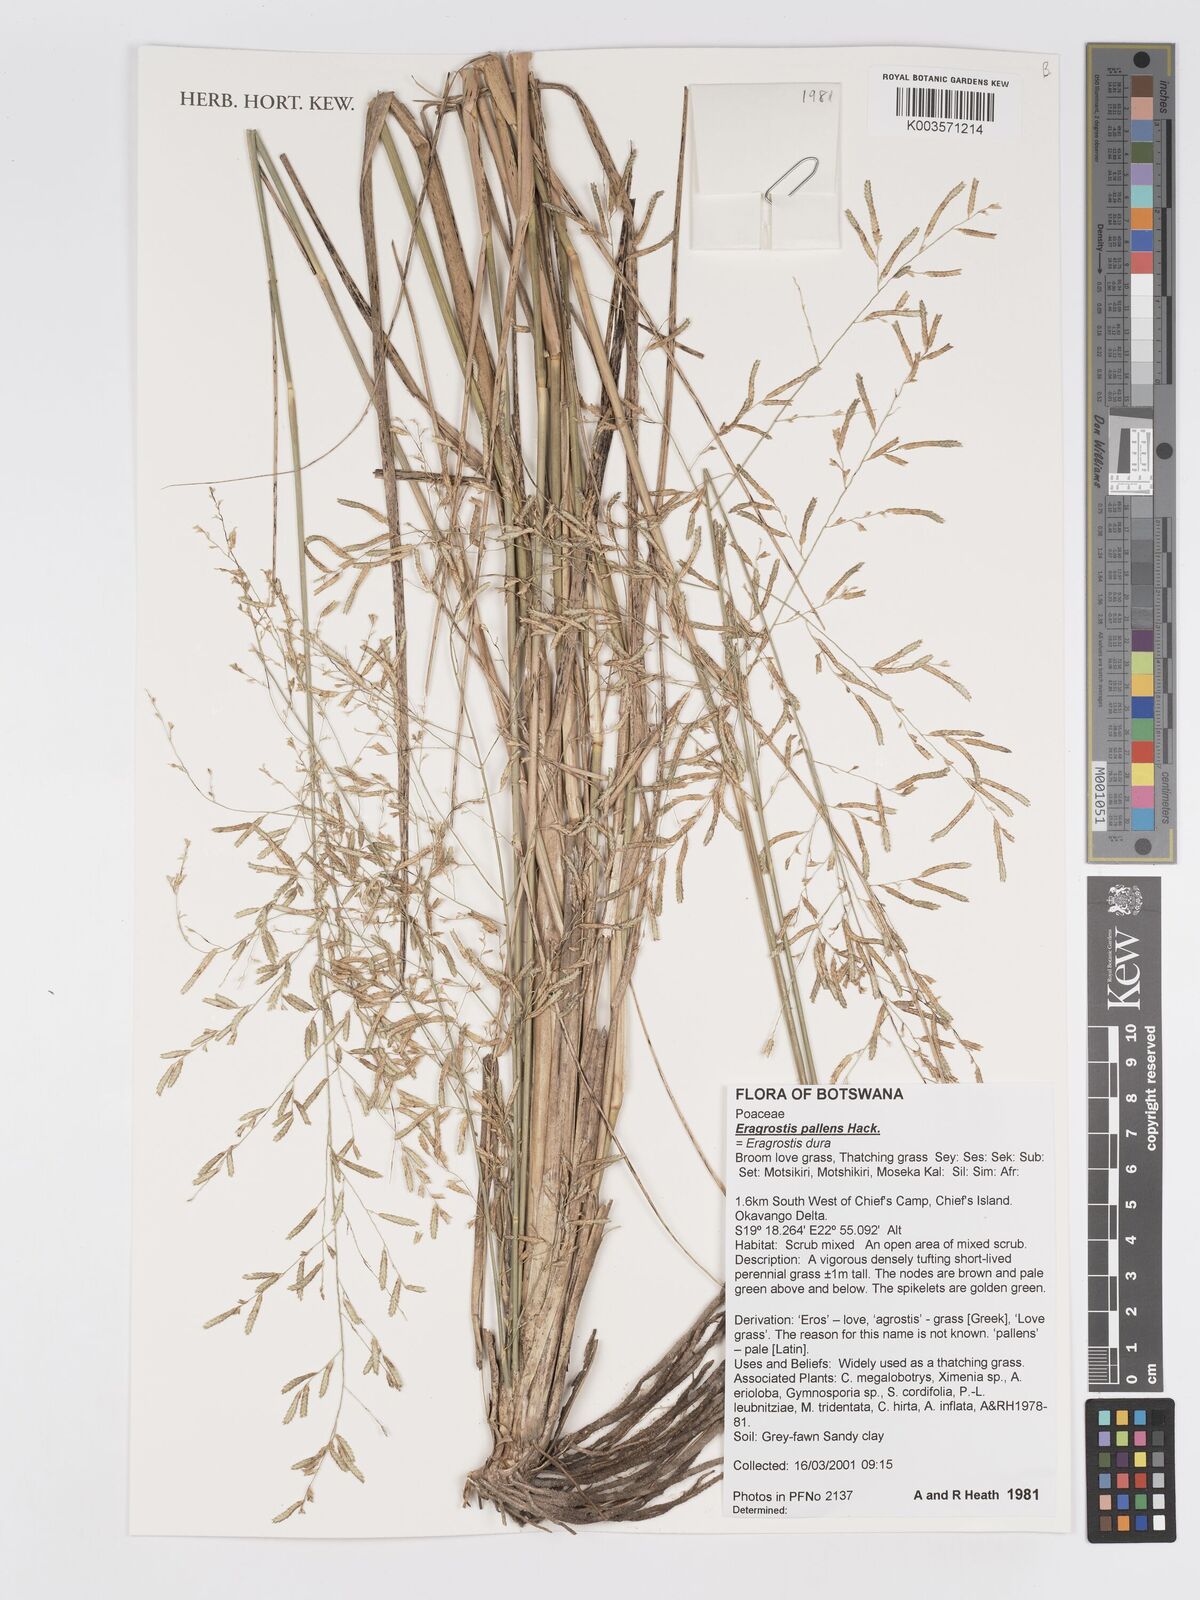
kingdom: Plantae
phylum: Tracheophyta
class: Liliopsida
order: Poales
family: Poaceae
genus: Eragrostis
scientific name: Eragrostis pallens
